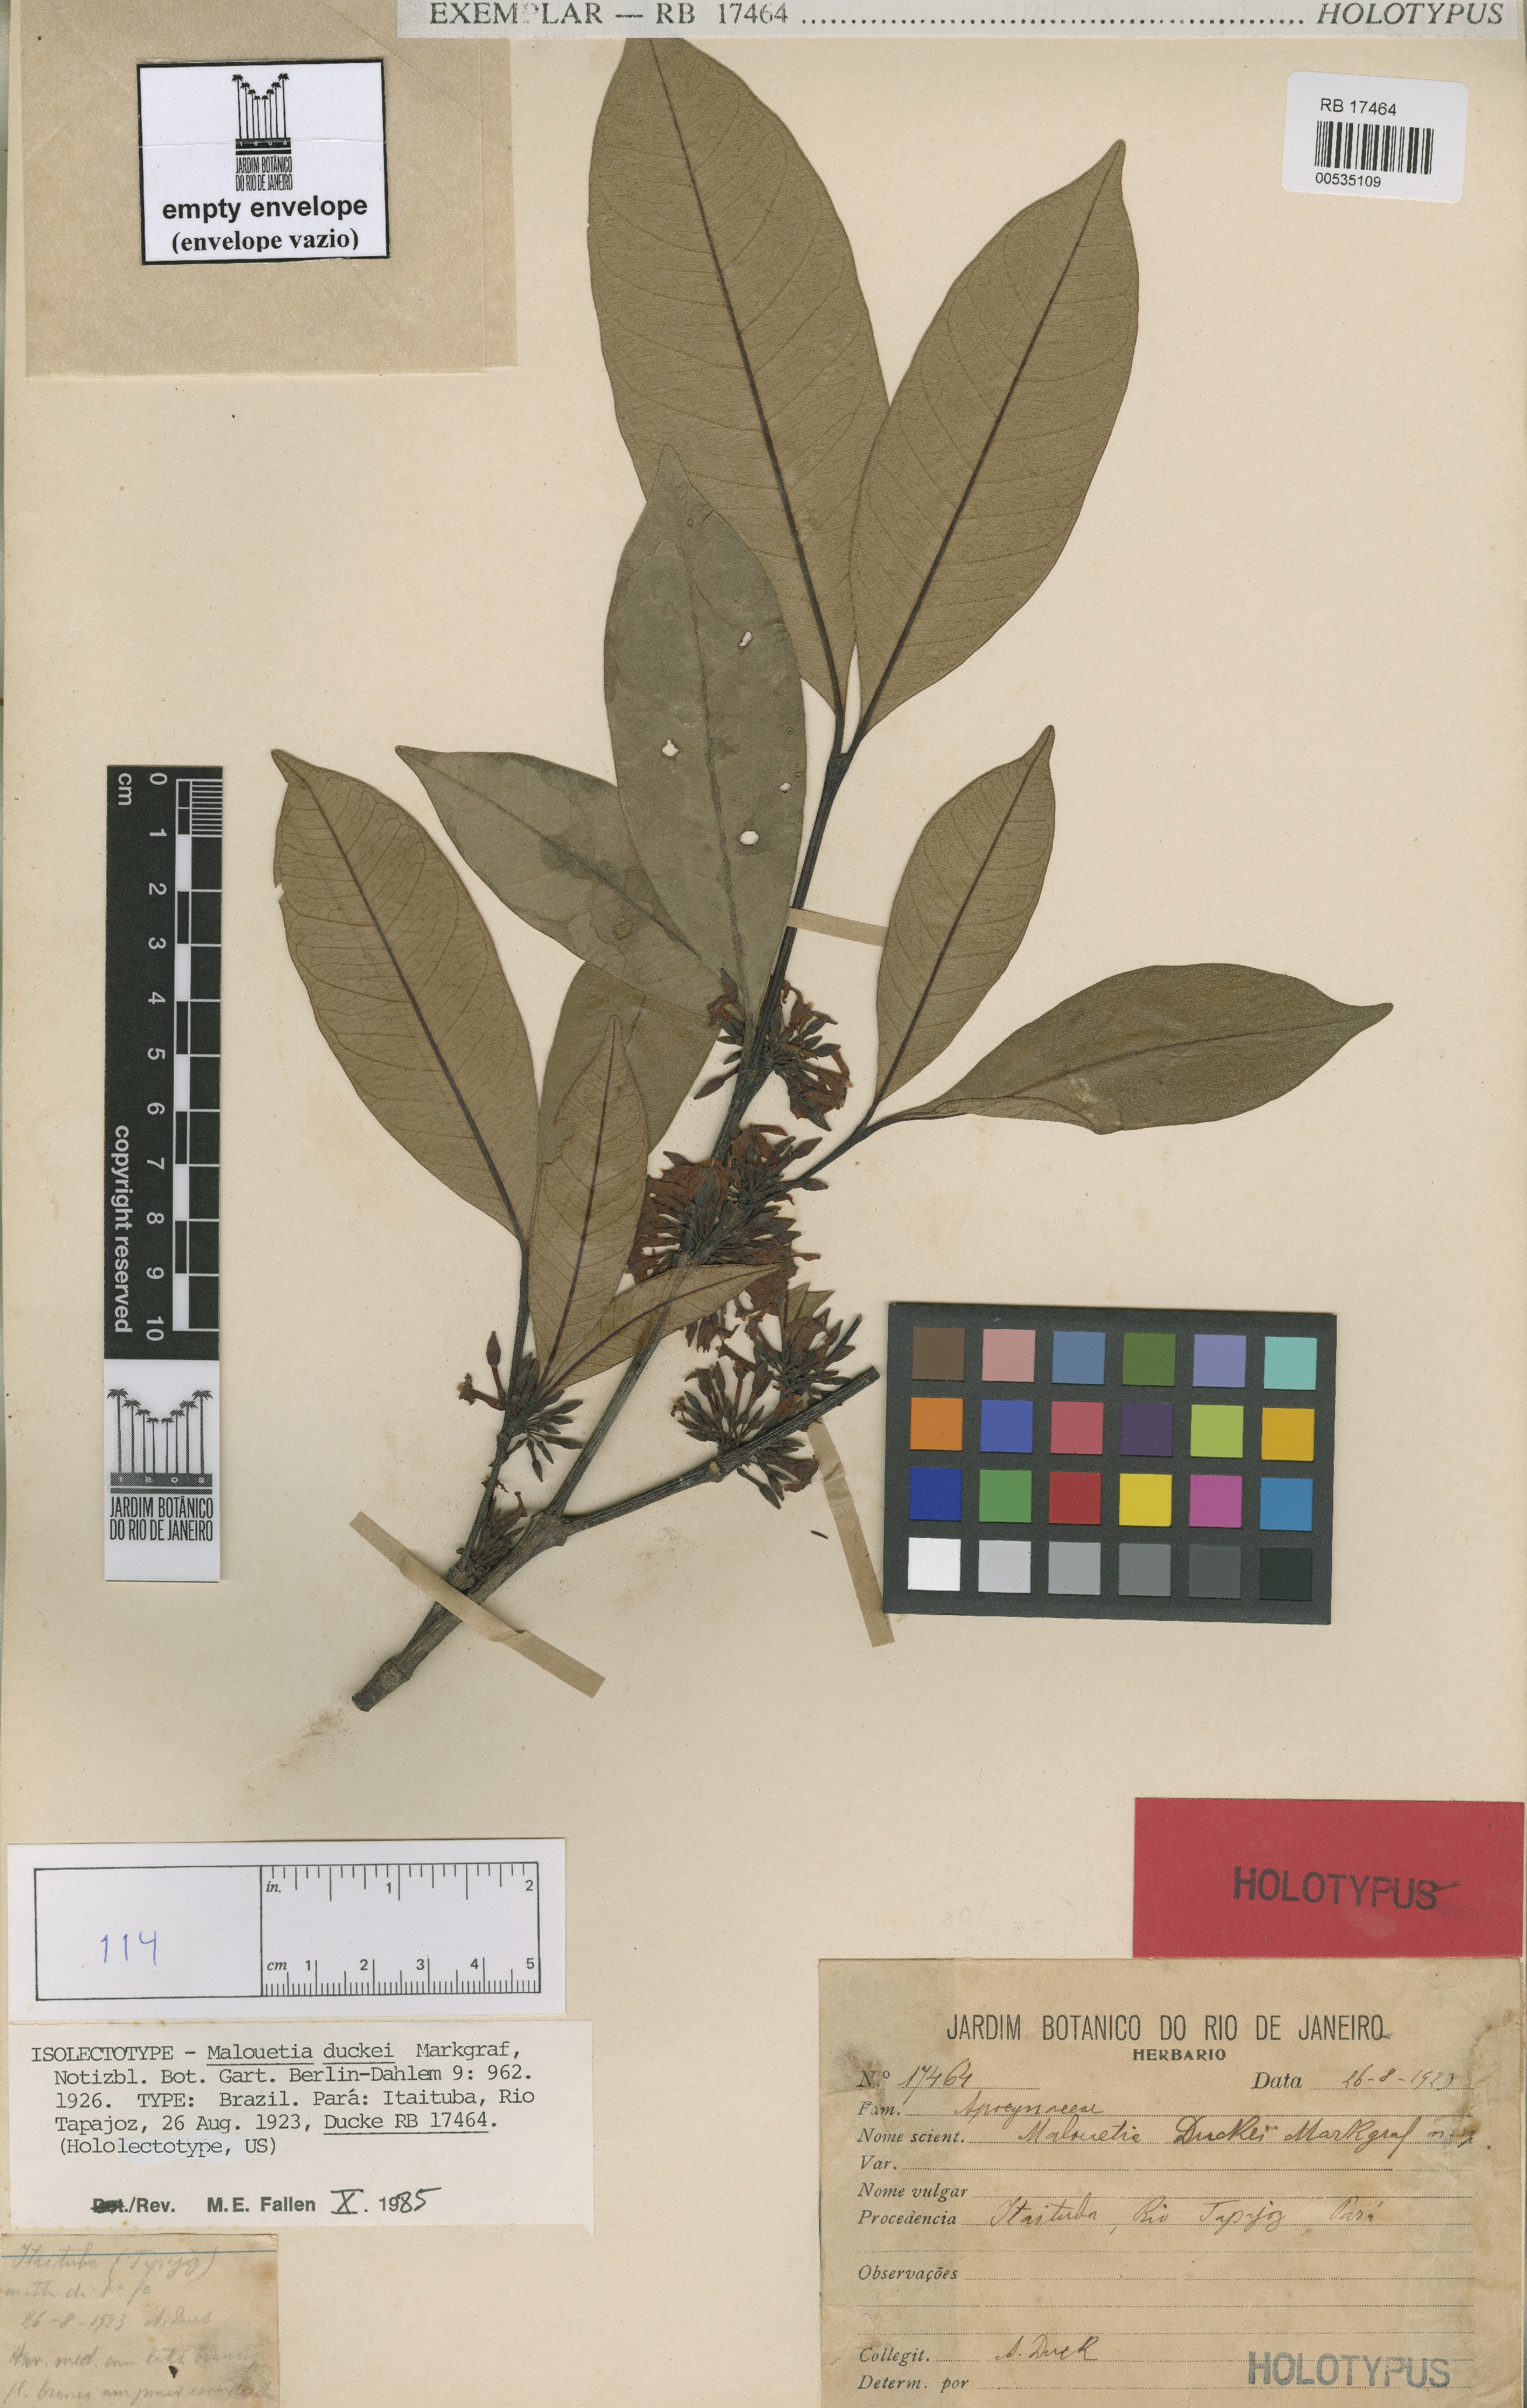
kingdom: Plantae
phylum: Tracheophyta
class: Magnoliopsida
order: Gentianales
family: Apocynaceae
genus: Malouetia
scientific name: Malouetia duckei
